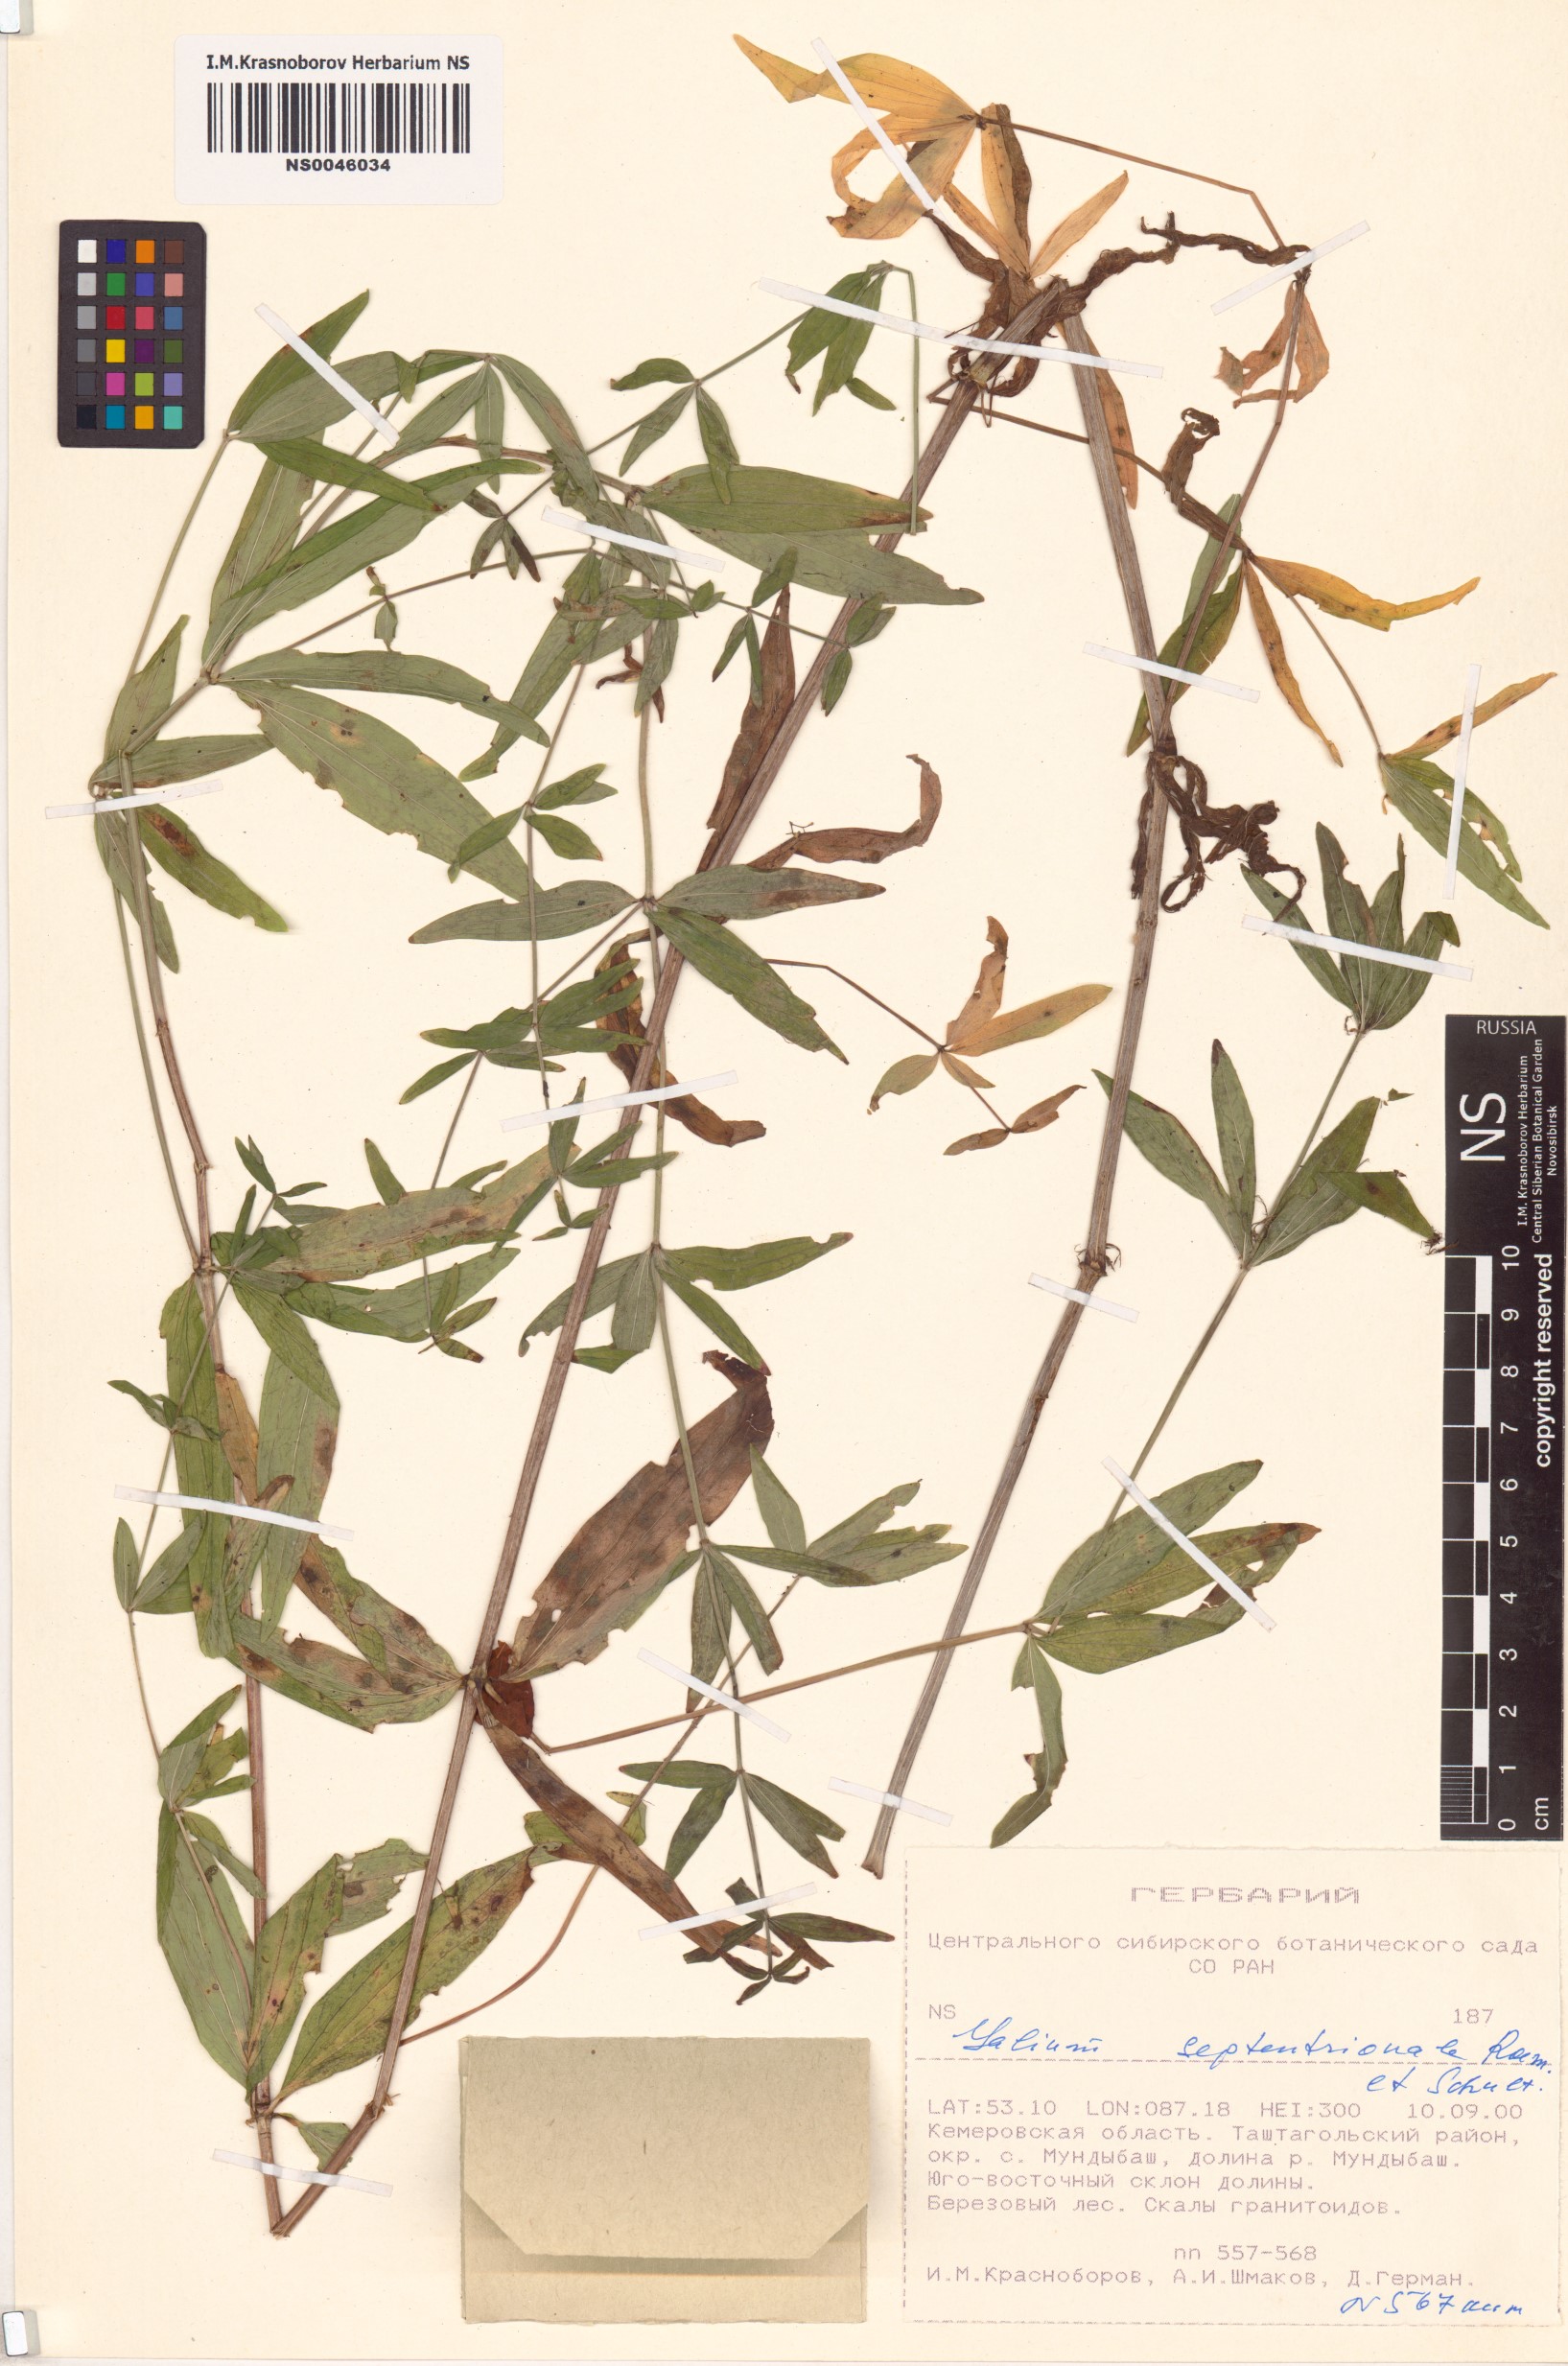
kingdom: Plantae
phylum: Tracheophyta
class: Magnoliopsida
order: Gentianales
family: Rubiaceae
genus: Galium
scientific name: Galium boreale
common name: Northern bedstraw
